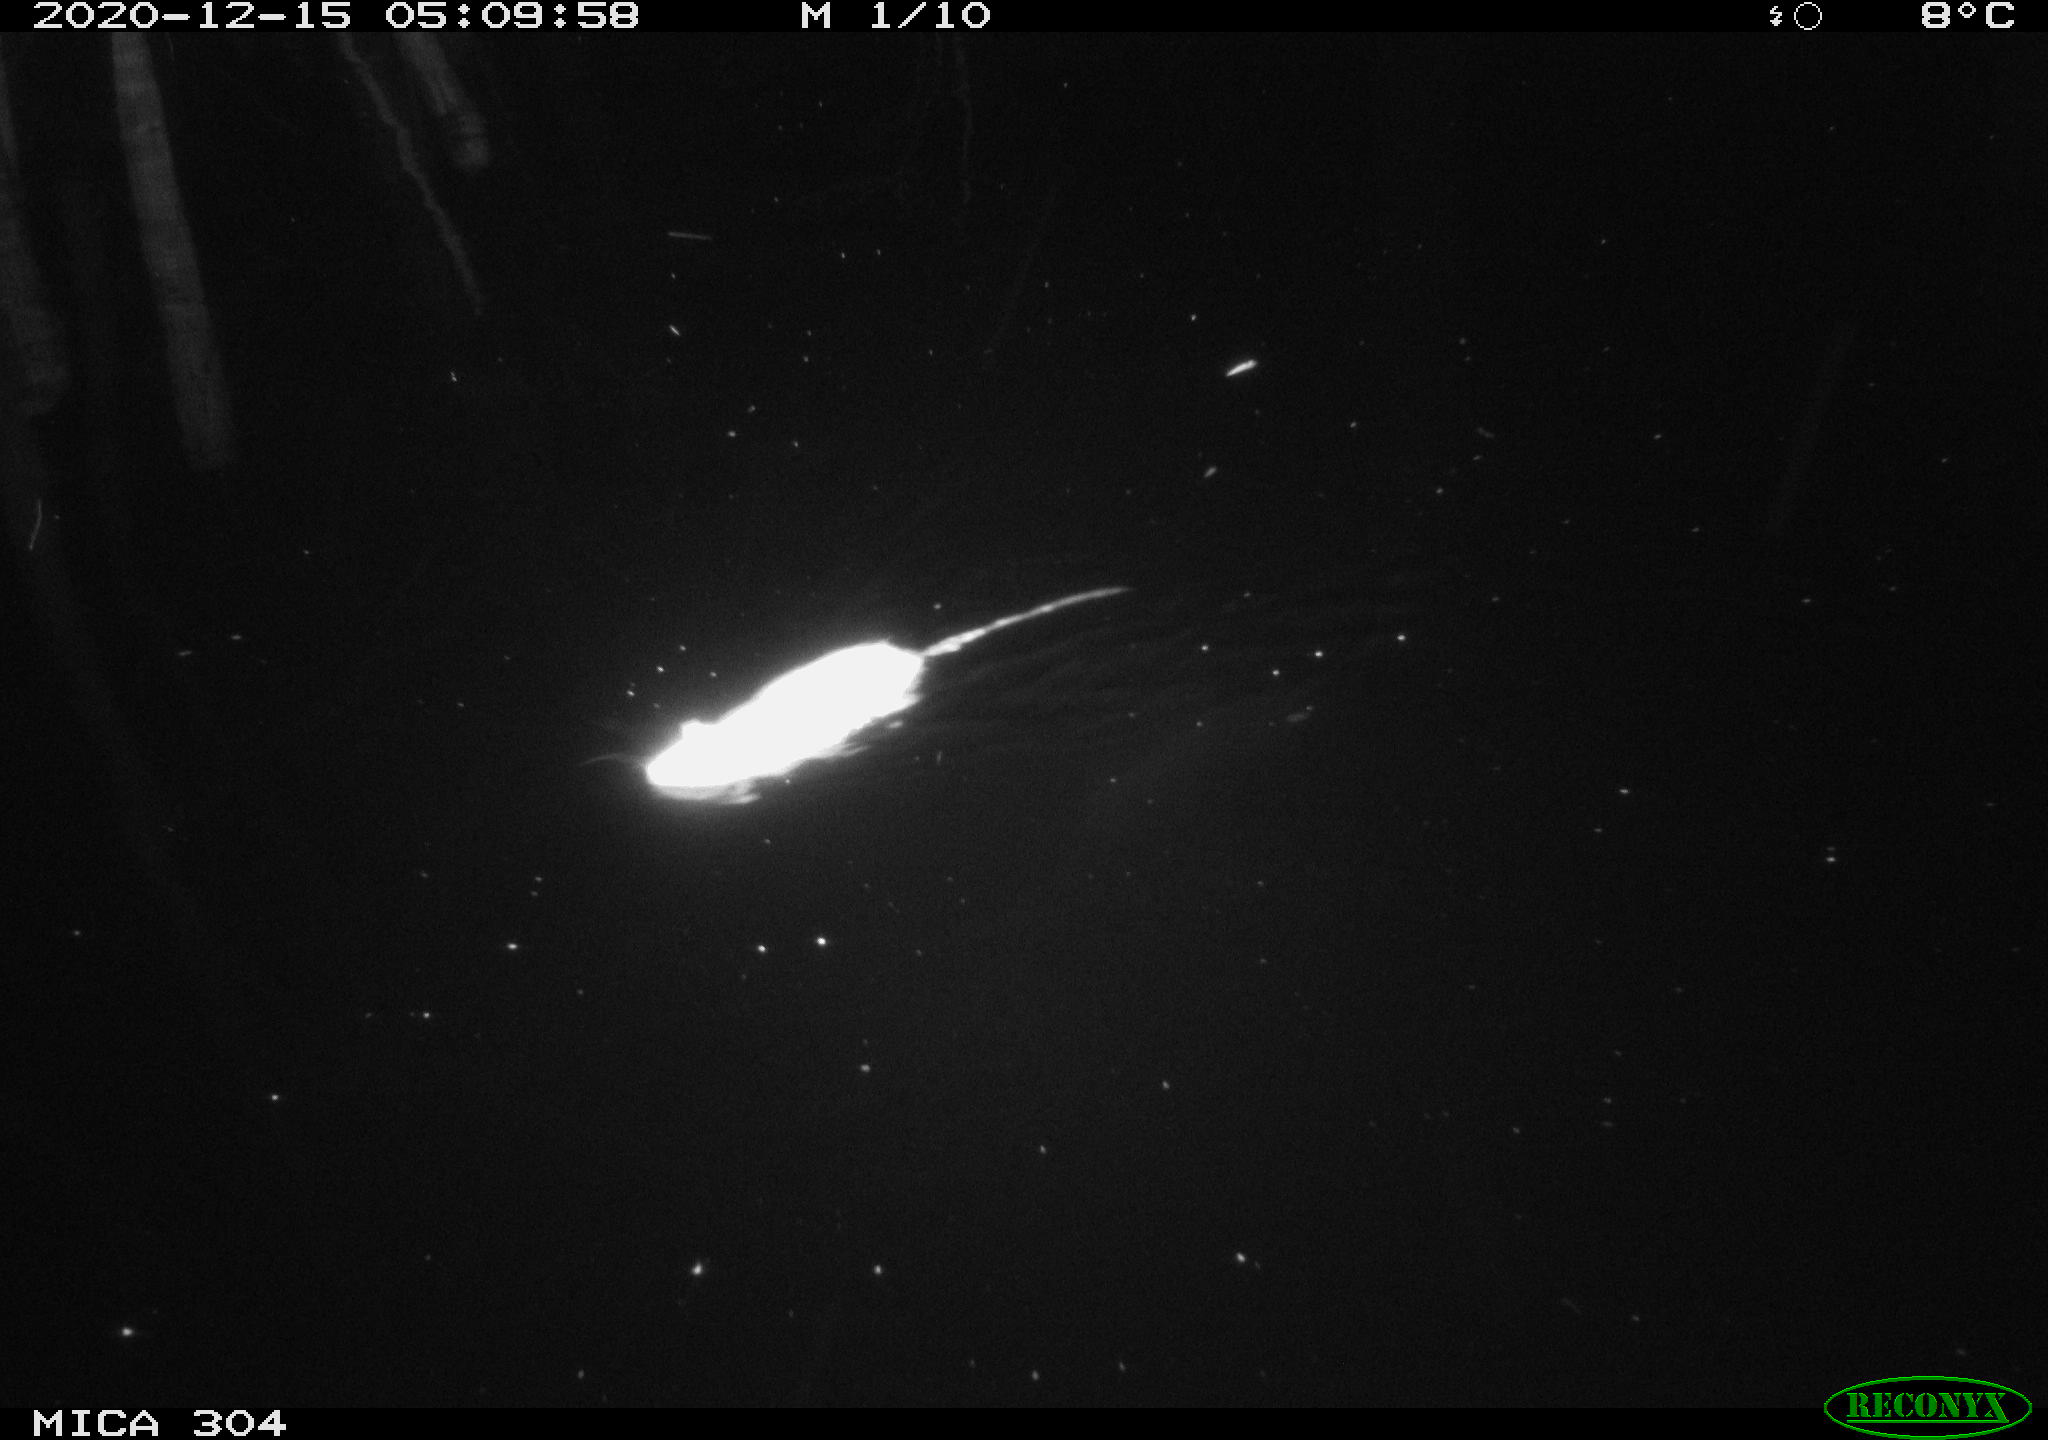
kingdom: Animalia
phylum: Chordata
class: Mammalia
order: Rodentia
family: Muridae
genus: Rattus
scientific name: Rattus norvegicus
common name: Brown rat
